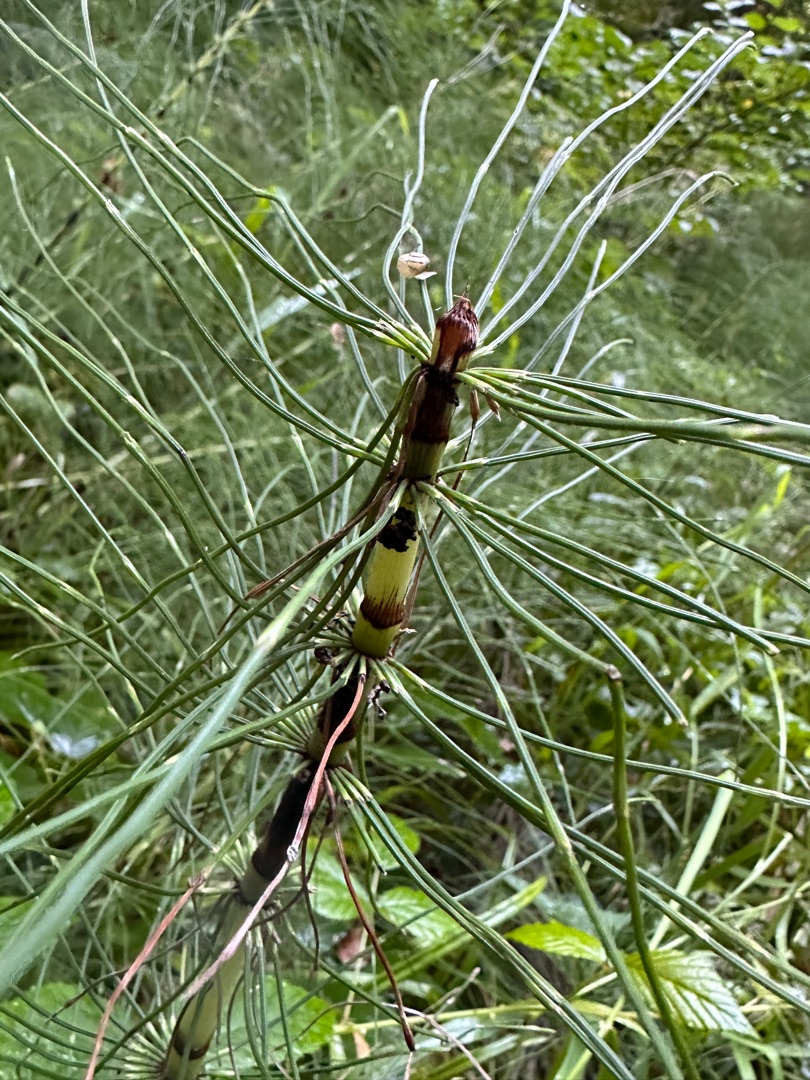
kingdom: Plantae
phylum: Tracheophyta
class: Polypodiopsida
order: Equisetales
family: Equisetaceae
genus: Equisetum
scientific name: Equisetum telmateia
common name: Elfenbens-padderok
